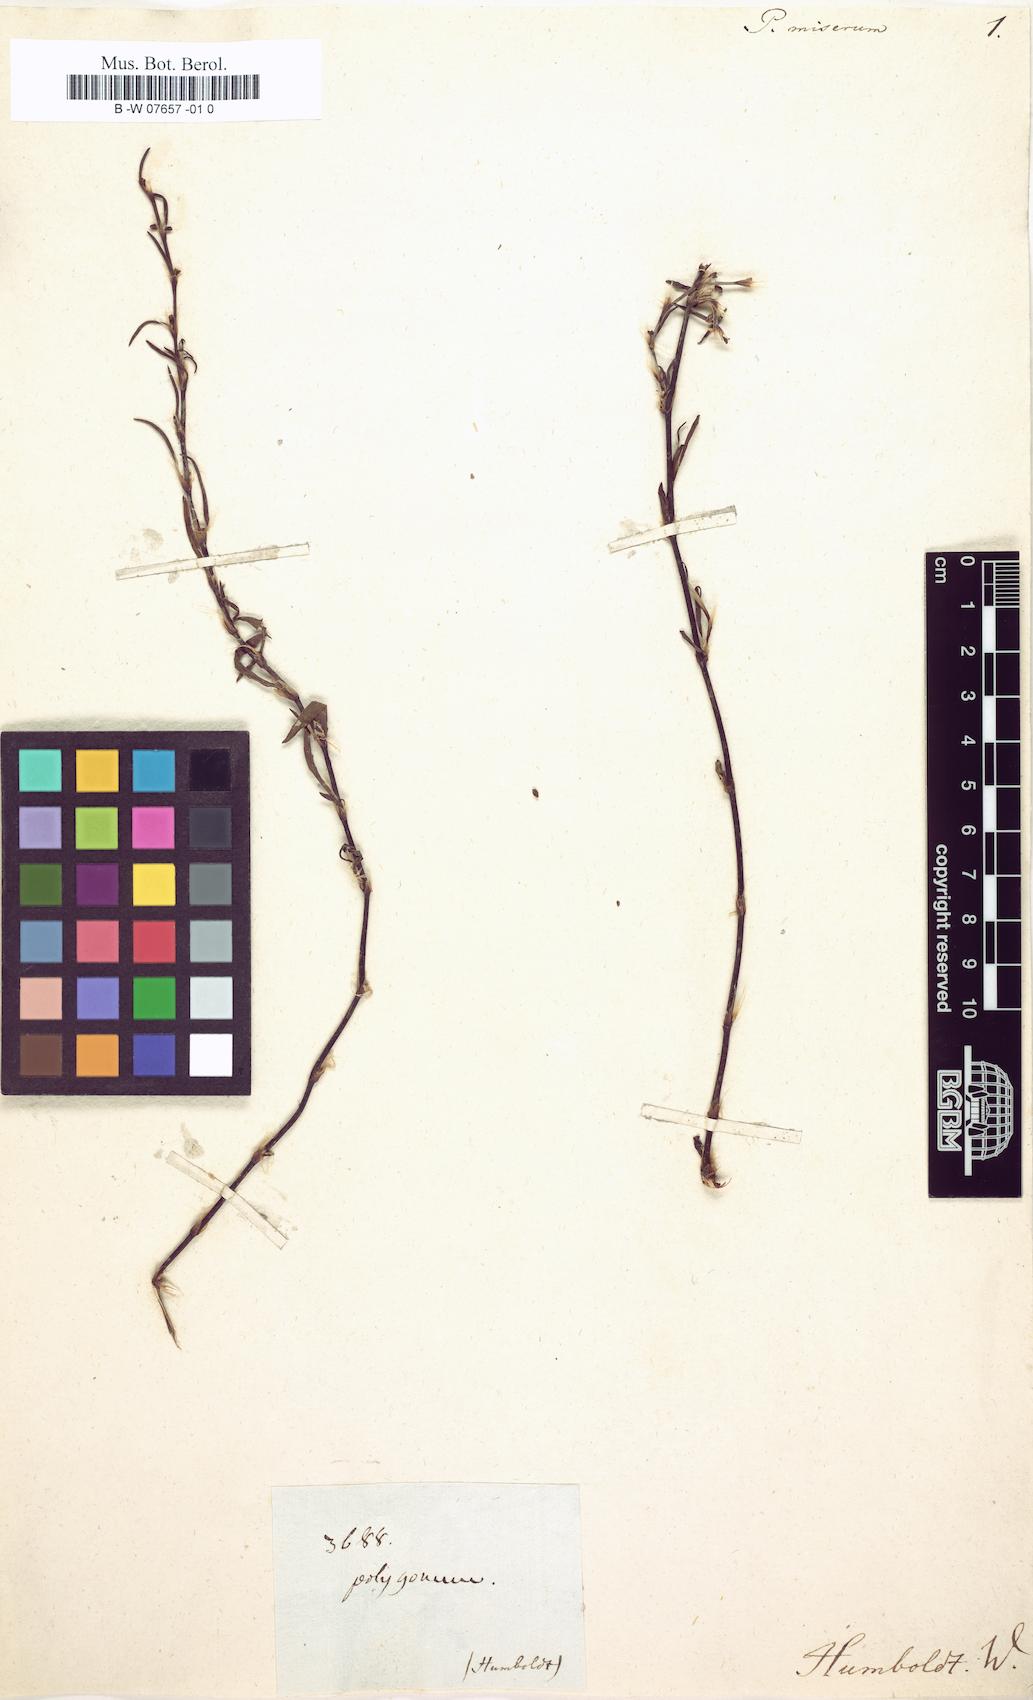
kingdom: Plantae
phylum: Tracheophyta
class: Magnoliopsida
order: Caryophyllales
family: Polygonaceae
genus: Polygonum
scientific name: Polygonum
